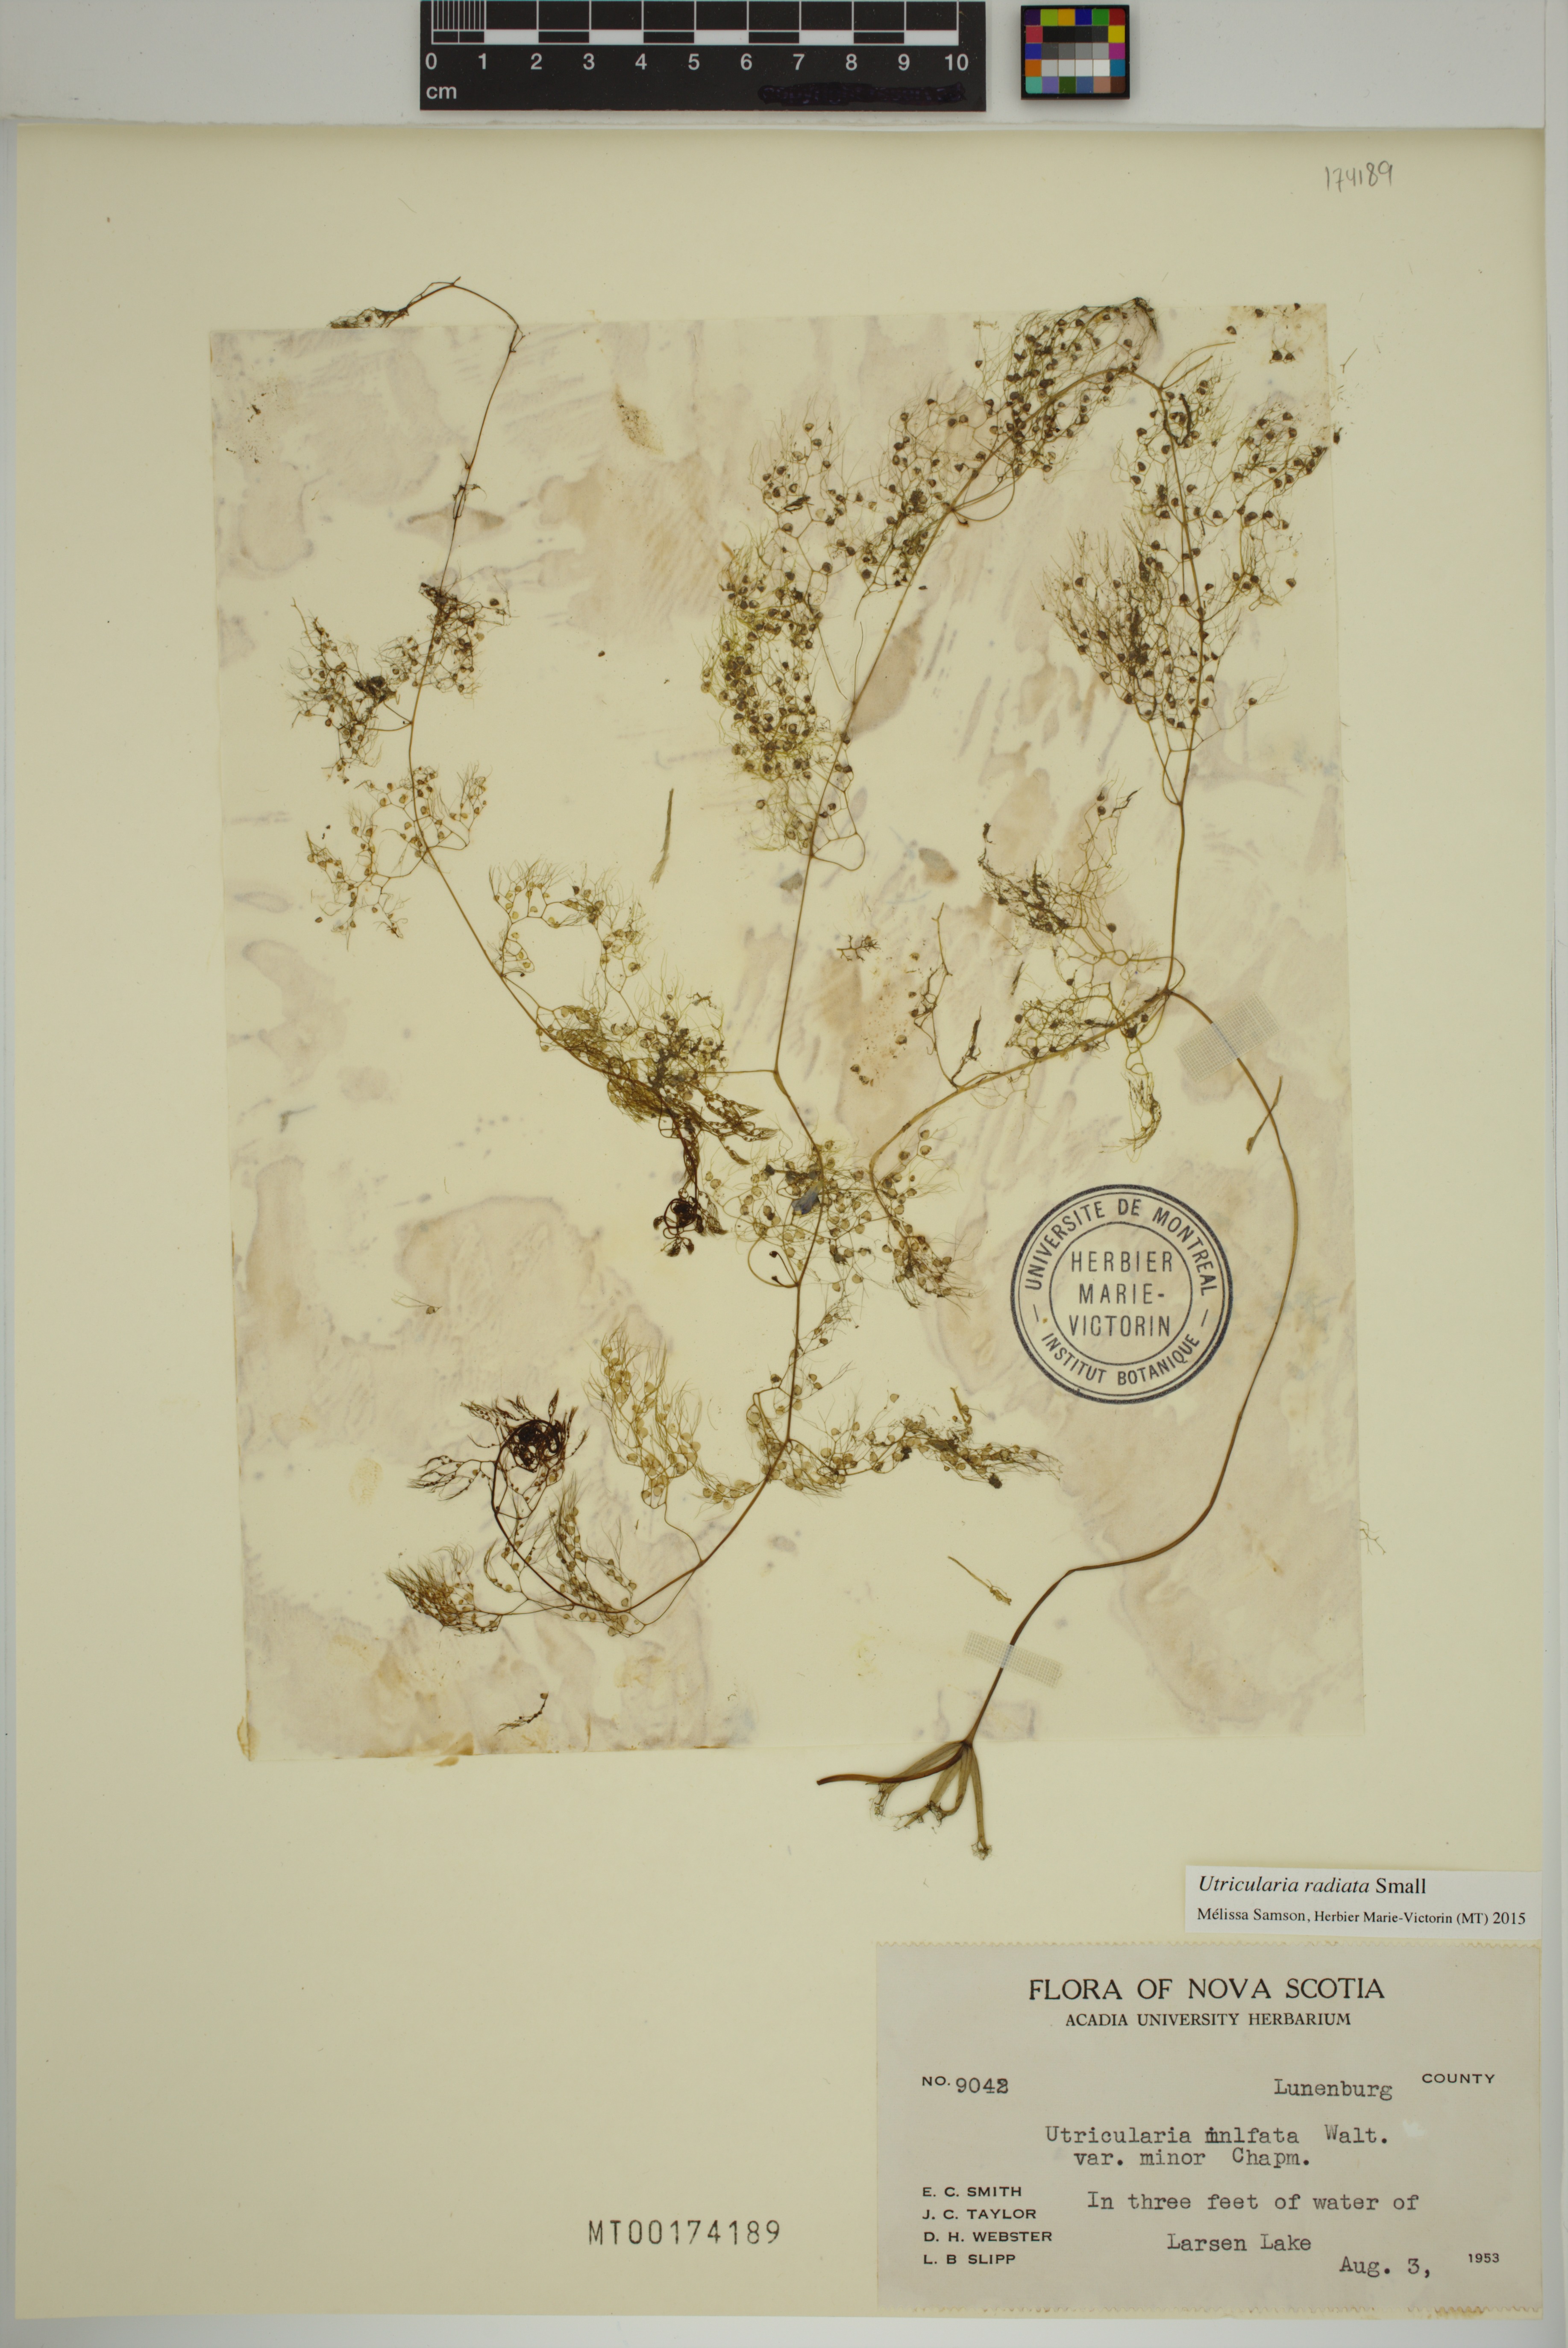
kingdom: Plantae
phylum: Tracheophyta
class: Magnoliopsida
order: Lamiales
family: Lentibulariaceae
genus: Utricularia
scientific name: Utricularia radiata
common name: Floating bladderwort
